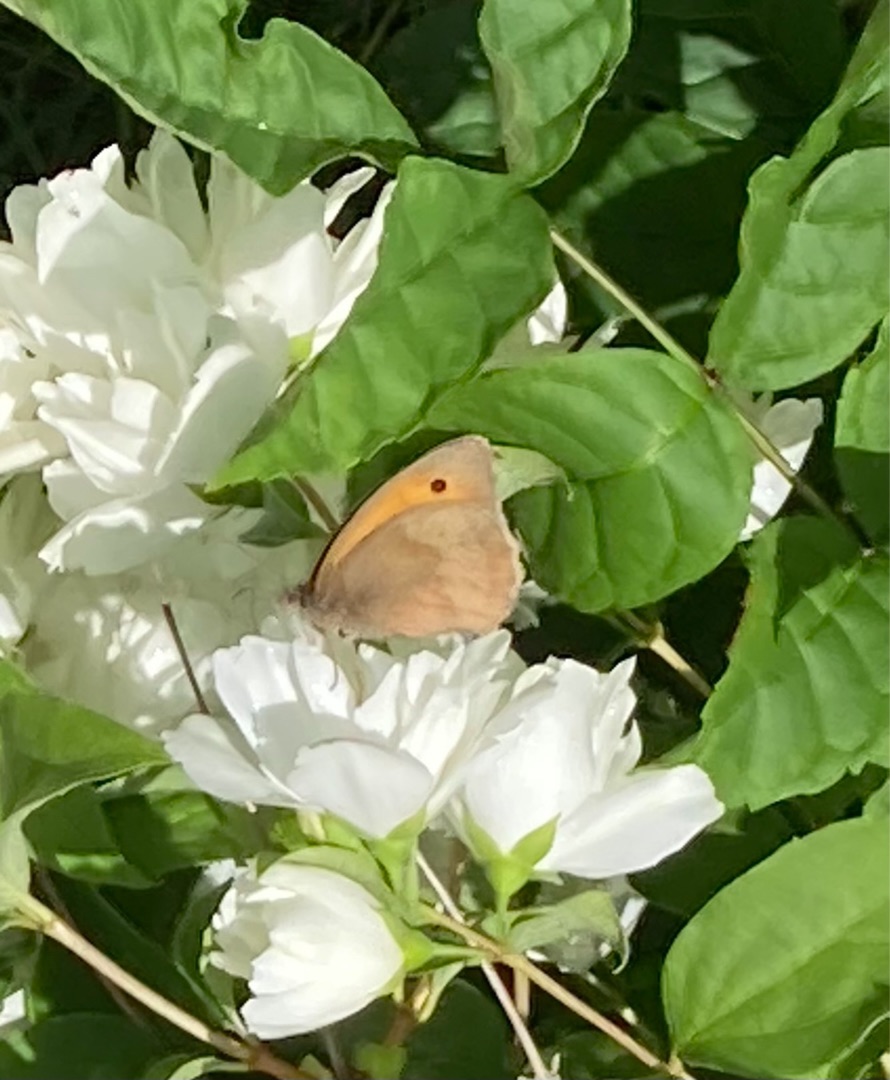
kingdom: Animalia
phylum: Arthropoda
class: Insecta
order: Lepidoptera
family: Nymphalidae
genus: Maniola
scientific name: Maniola jurtina
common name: Græsrandøje
